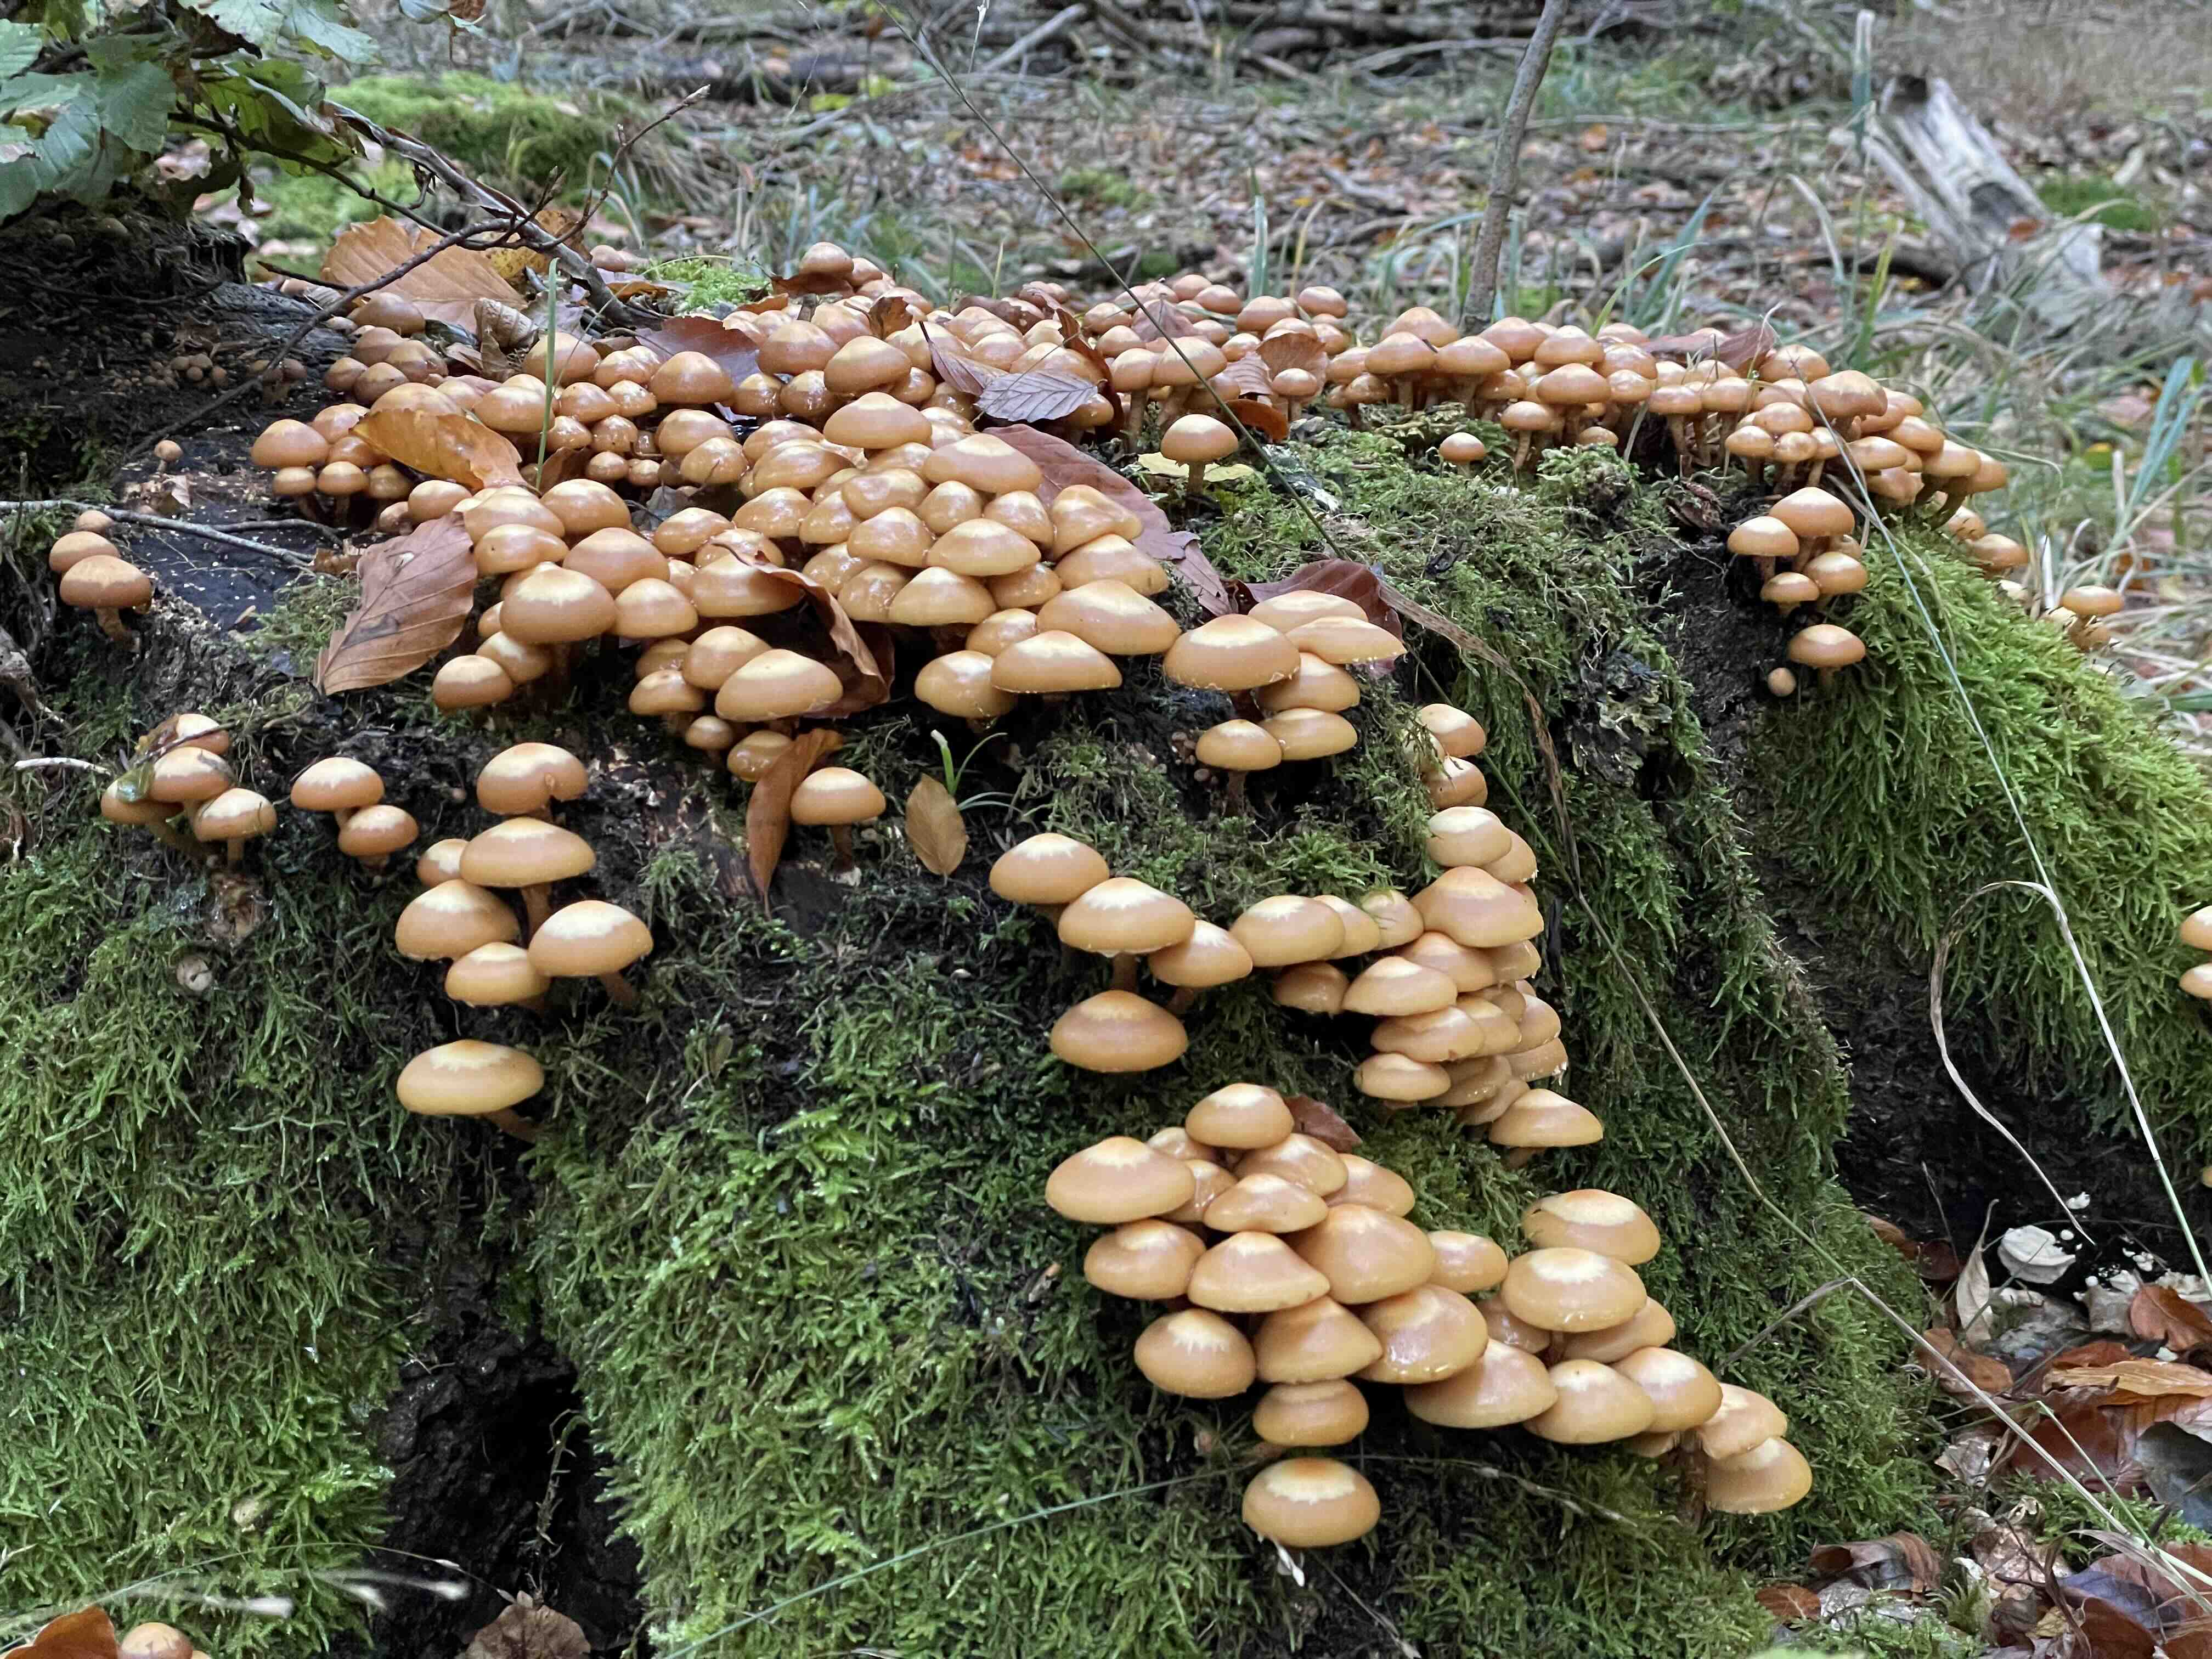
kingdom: Fungi
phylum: Basidiomycota
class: Agaricomycetes
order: Agaricales
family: Strophariaceae
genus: Kuehneromyces
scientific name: Kuehneromyces mutabilis
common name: foranderlig skælhat
